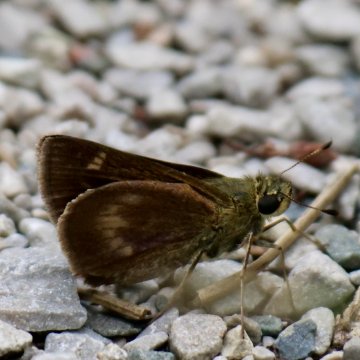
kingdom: Animalia
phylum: Arthropoda
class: Insecta
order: Lepidoptera
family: Hesperiidae
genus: Polites
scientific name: Polites egeremet
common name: Northern Broken-Dash
